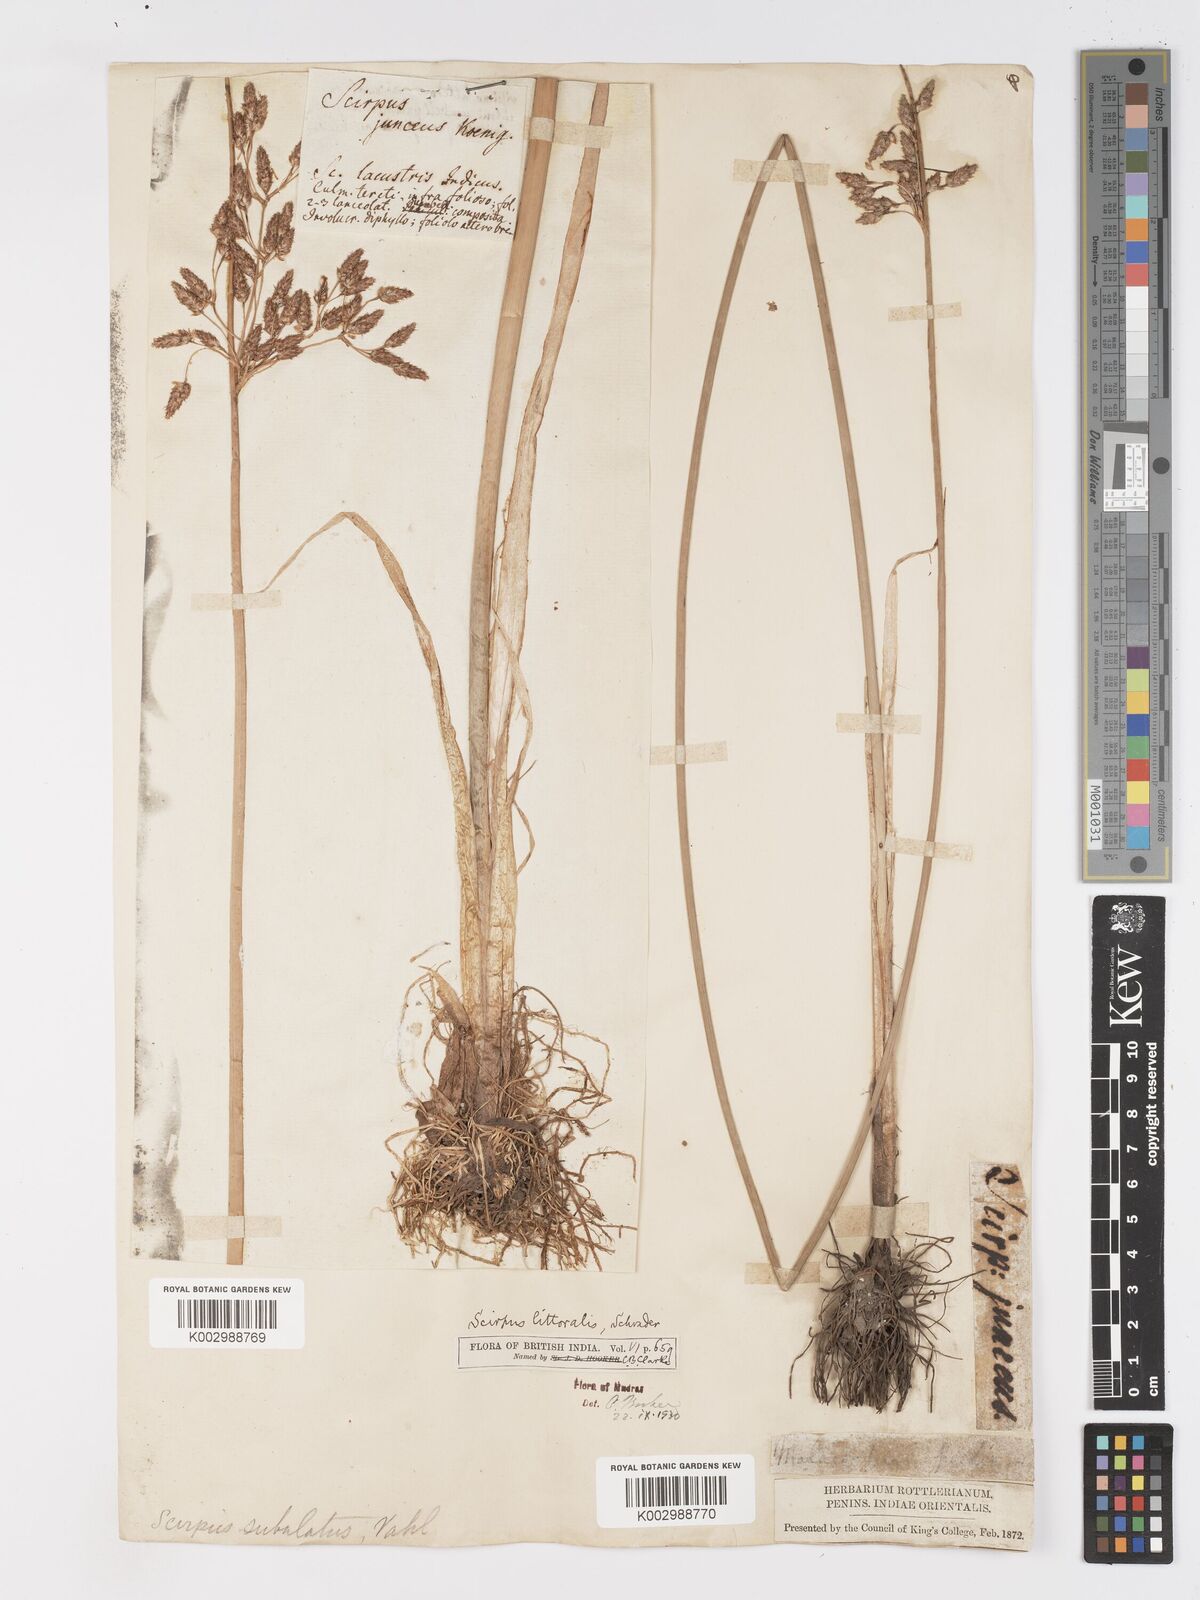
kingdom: Plantae
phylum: Tracheophyta
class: Liliopsida
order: Poales
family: Cyperaceae
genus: Schoenoplectus
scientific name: Schoenoplectus litoralis
